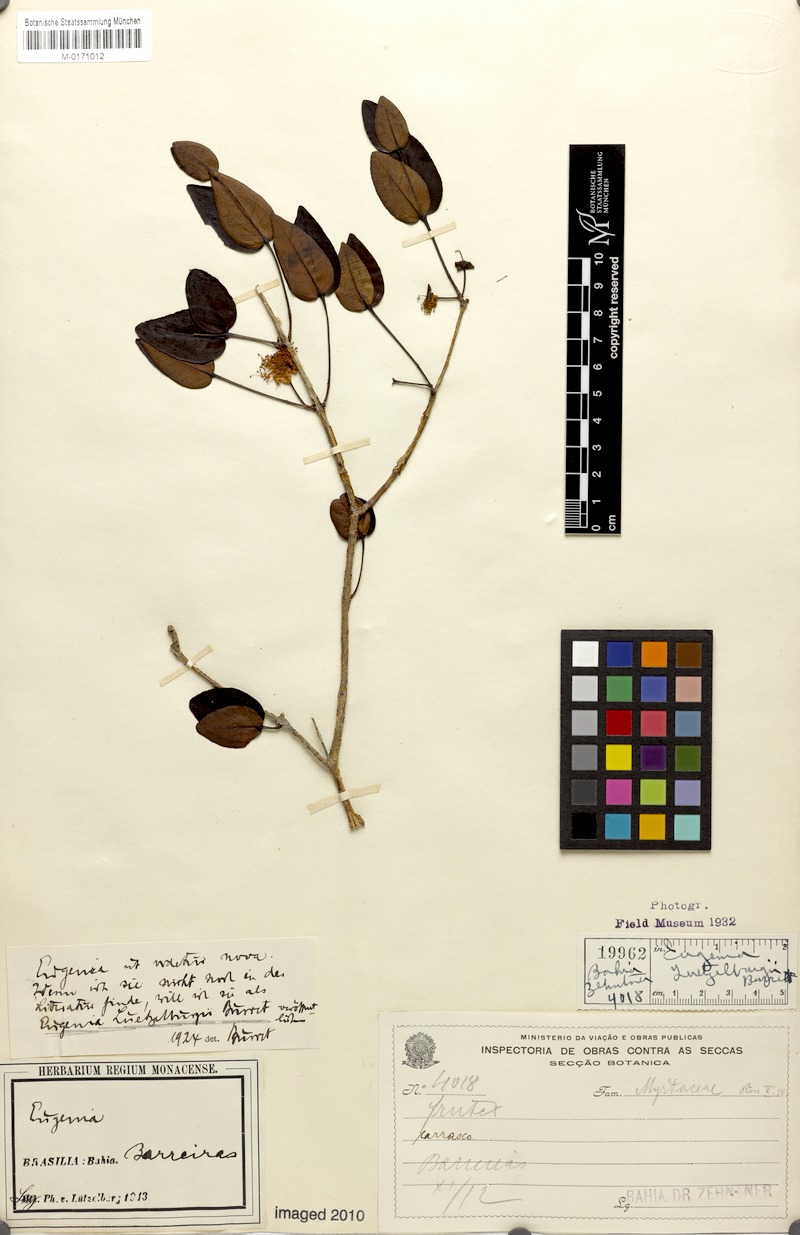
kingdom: Plantae
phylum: Tracheophyta
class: Magnoliopsida
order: Myrtales
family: Myrtaceae
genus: Eugenia
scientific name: Eugenia
